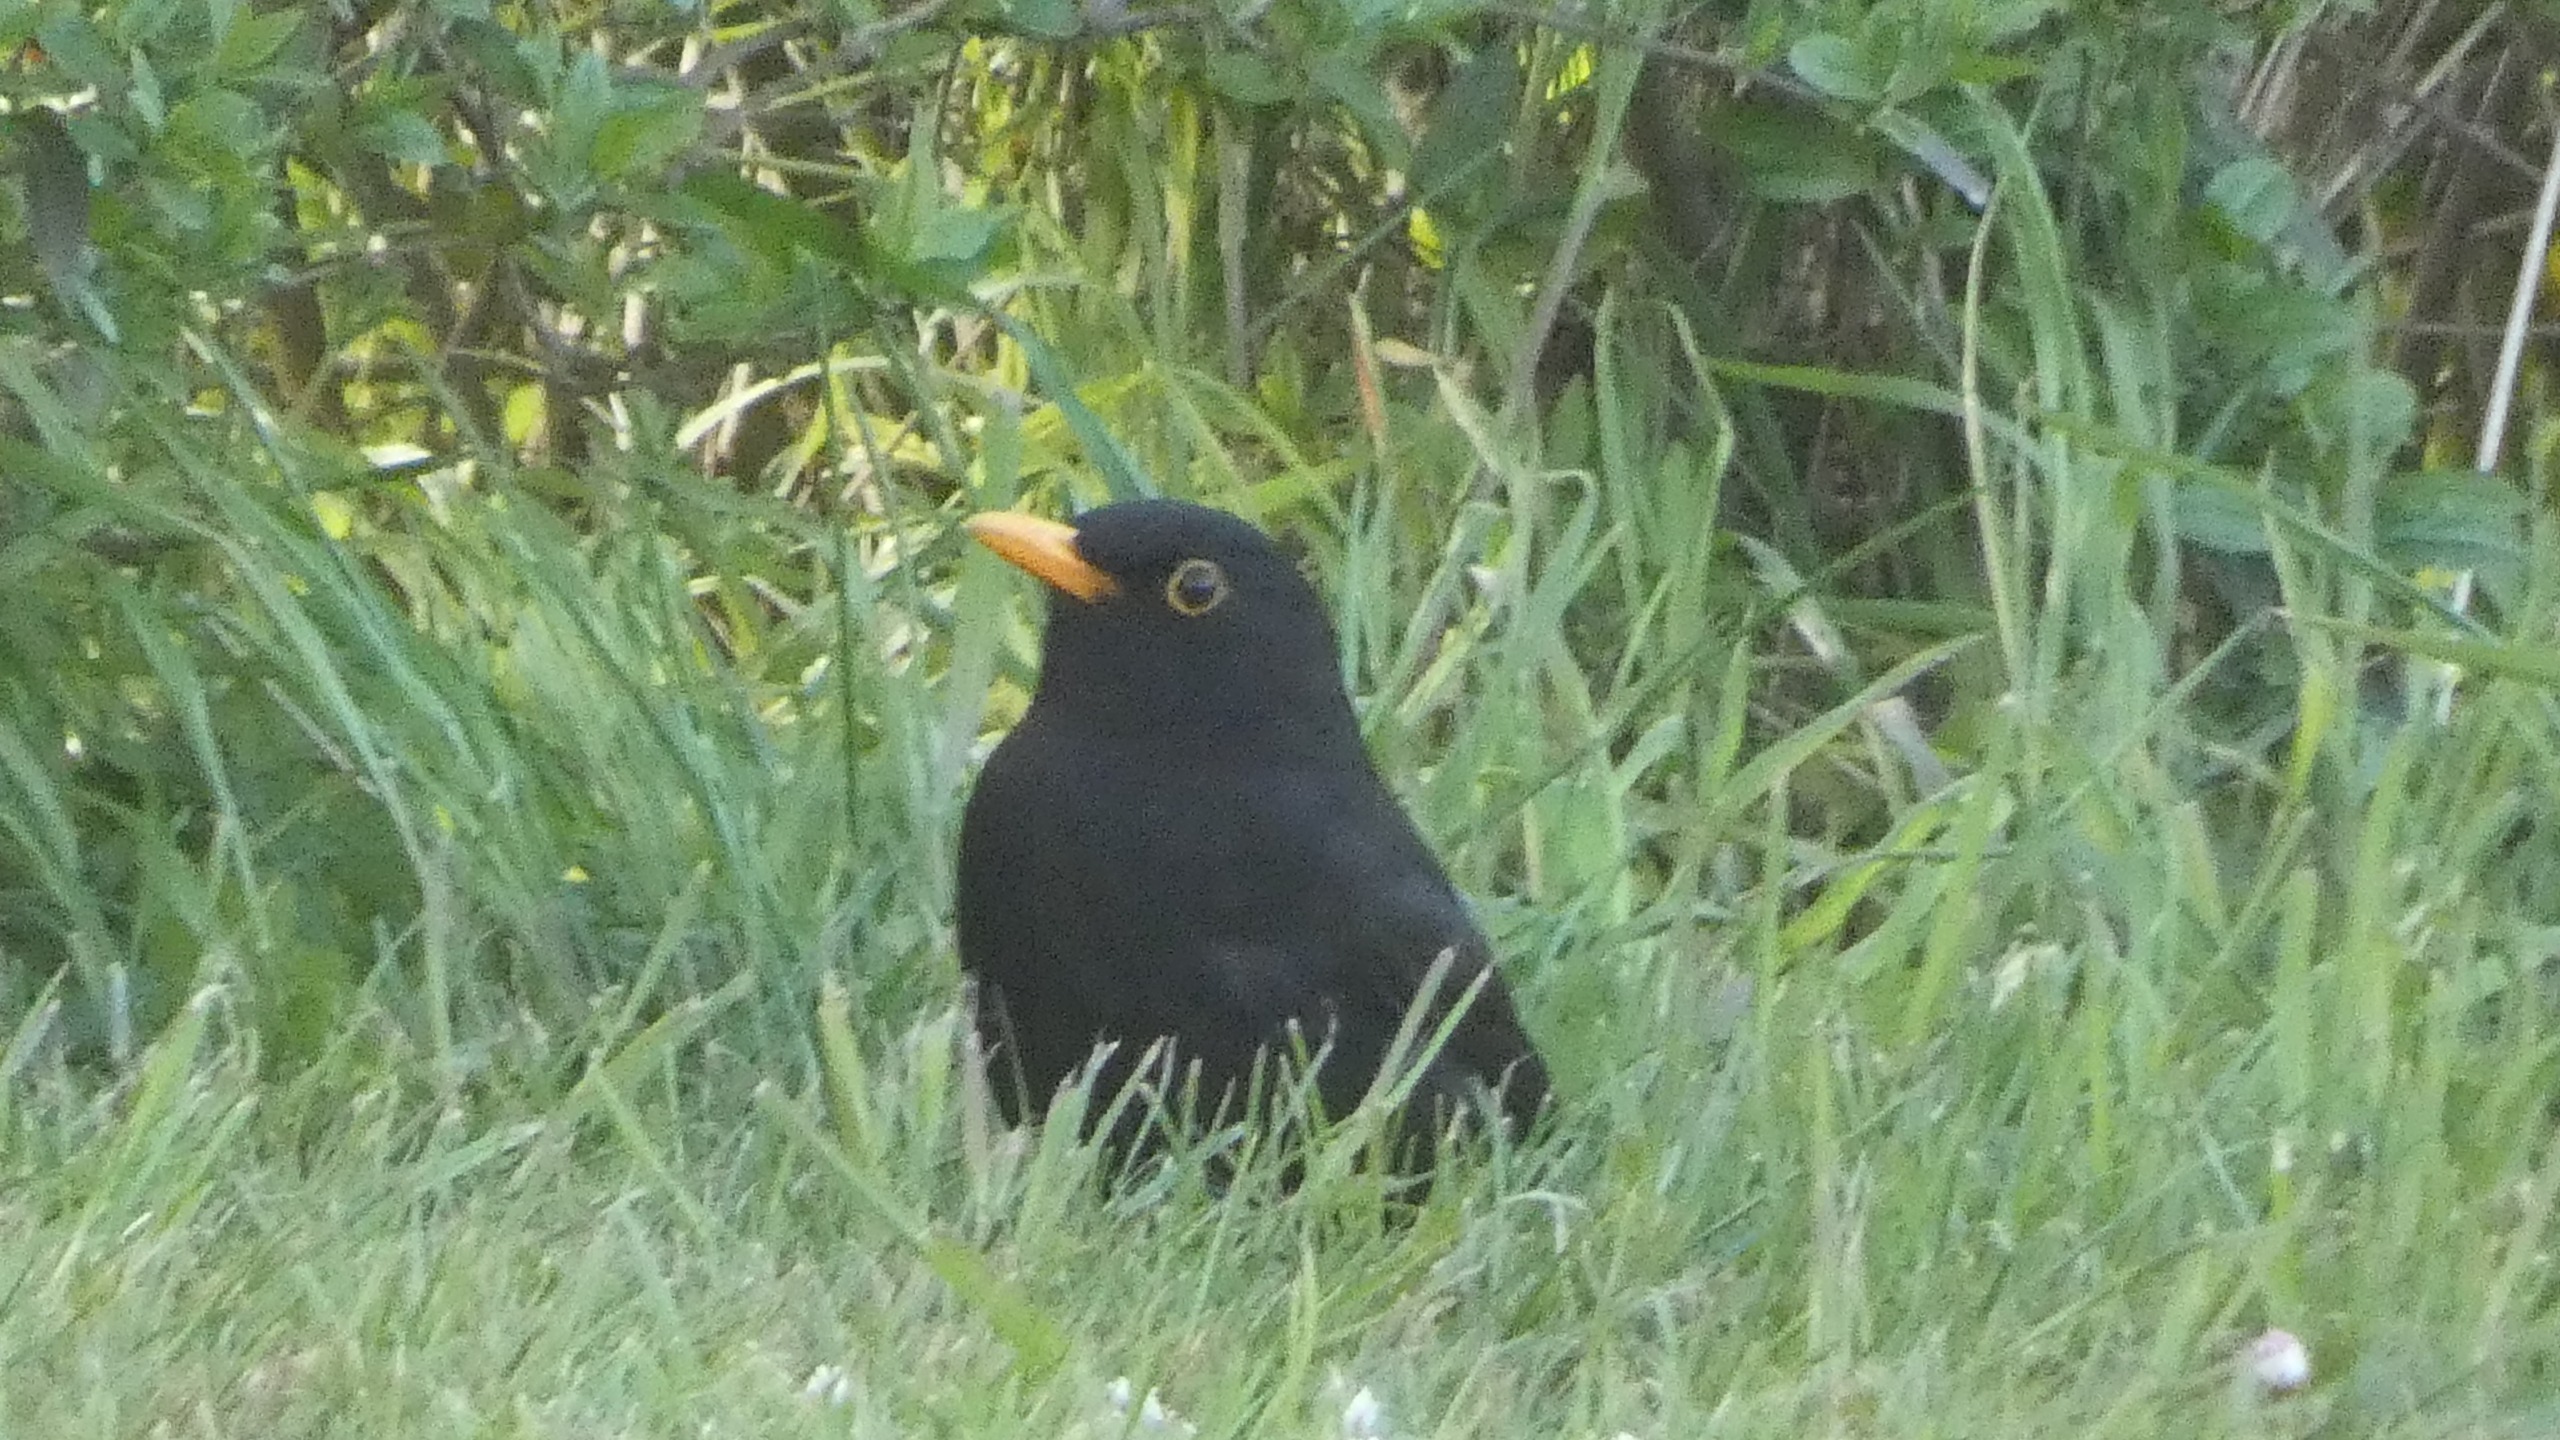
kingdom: Animalia
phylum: Chordata
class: Aves
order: Passeriformes
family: Turdidae
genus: Turdus
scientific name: Turdus merula
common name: Solsort
